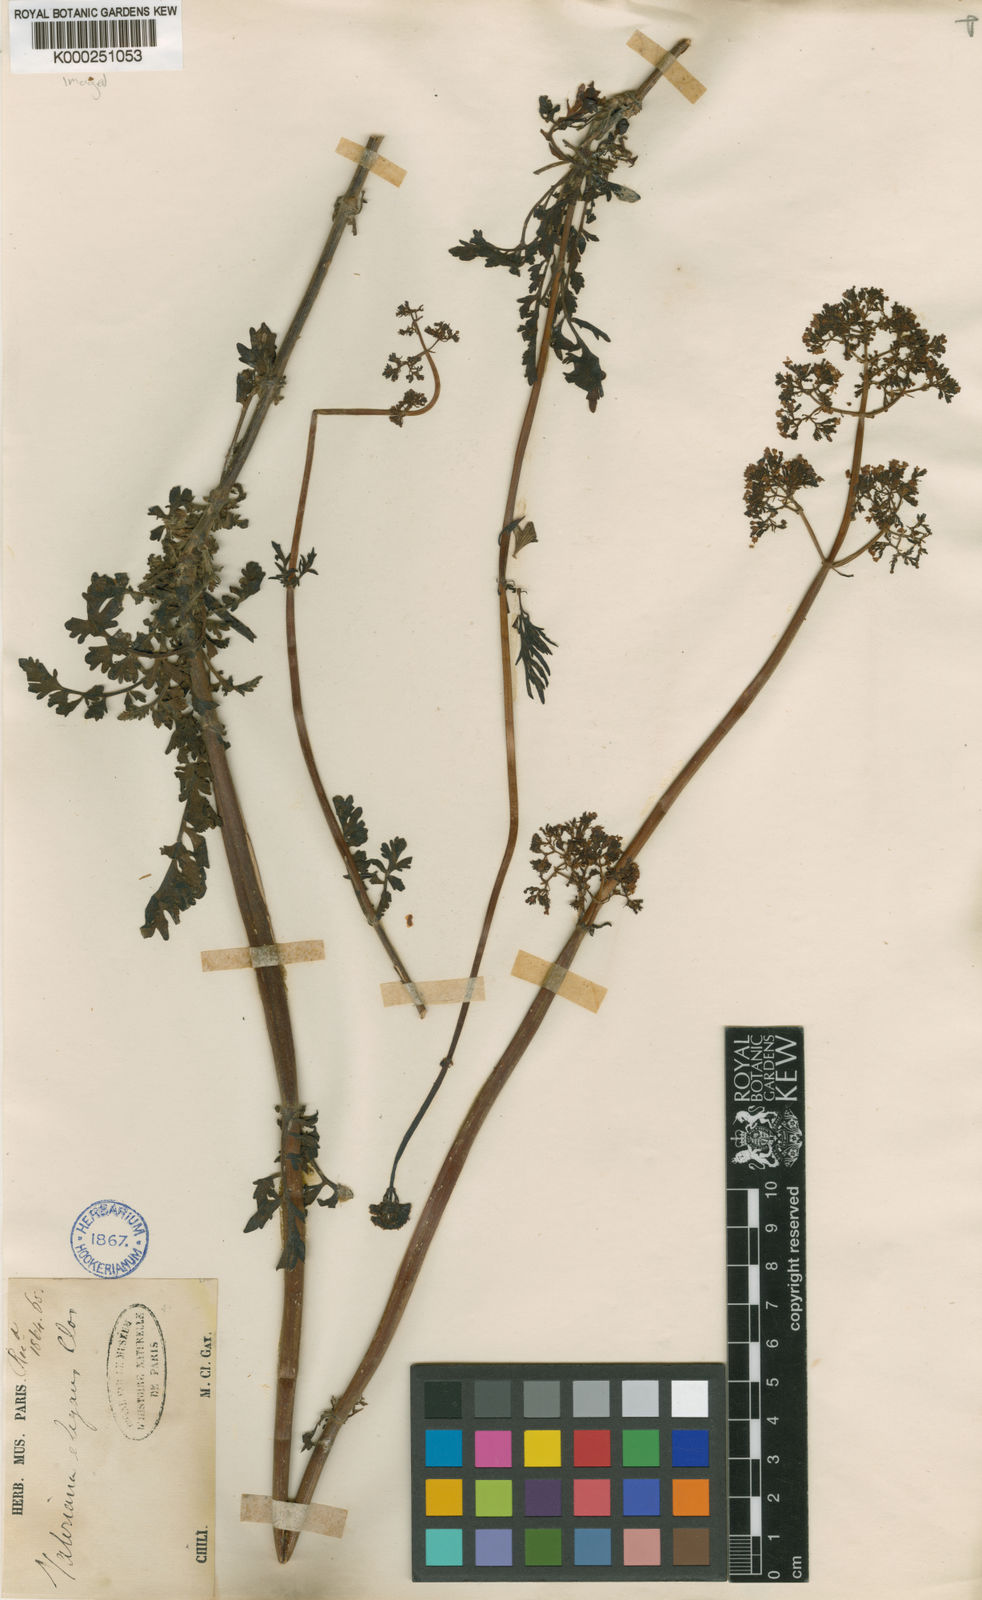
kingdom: Plantae
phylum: Tracheophyta
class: Magnoliopsida
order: Dipsacales
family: Caprifoliaceae
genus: Valeriana
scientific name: Valeriana stricta
